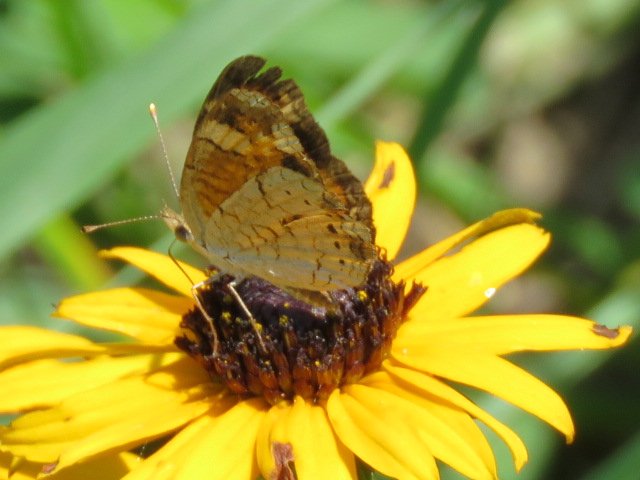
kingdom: Animalia
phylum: Arthropoda
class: Insecta
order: Lepidoptera
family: Nymphalidae
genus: Phyciodes
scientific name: Phyciodes tharos
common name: Pearl Crescent
